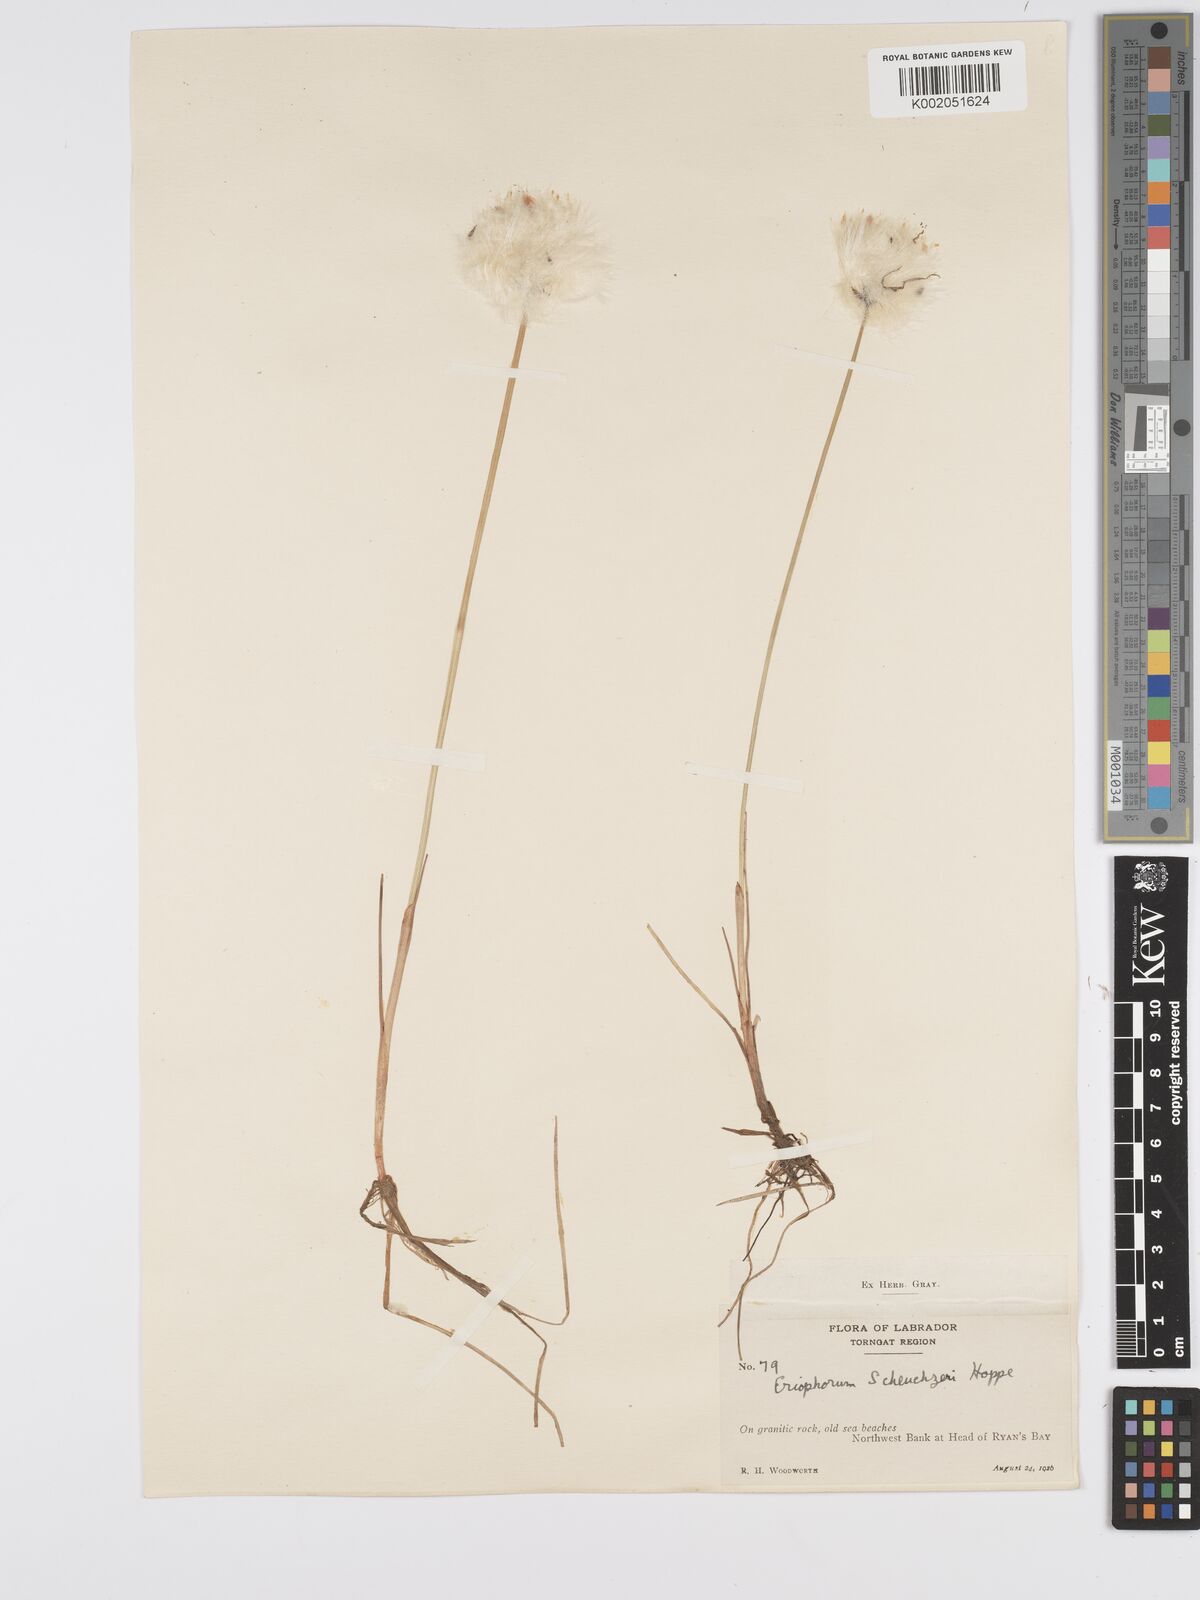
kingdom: Plantae
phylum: Tracheophyta
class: Liliopsida
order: Poales
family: Cyperaceae
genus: Eriophorum
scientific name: Eriophorum scheuchzeri
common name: Scheuchzer's cottongrass
